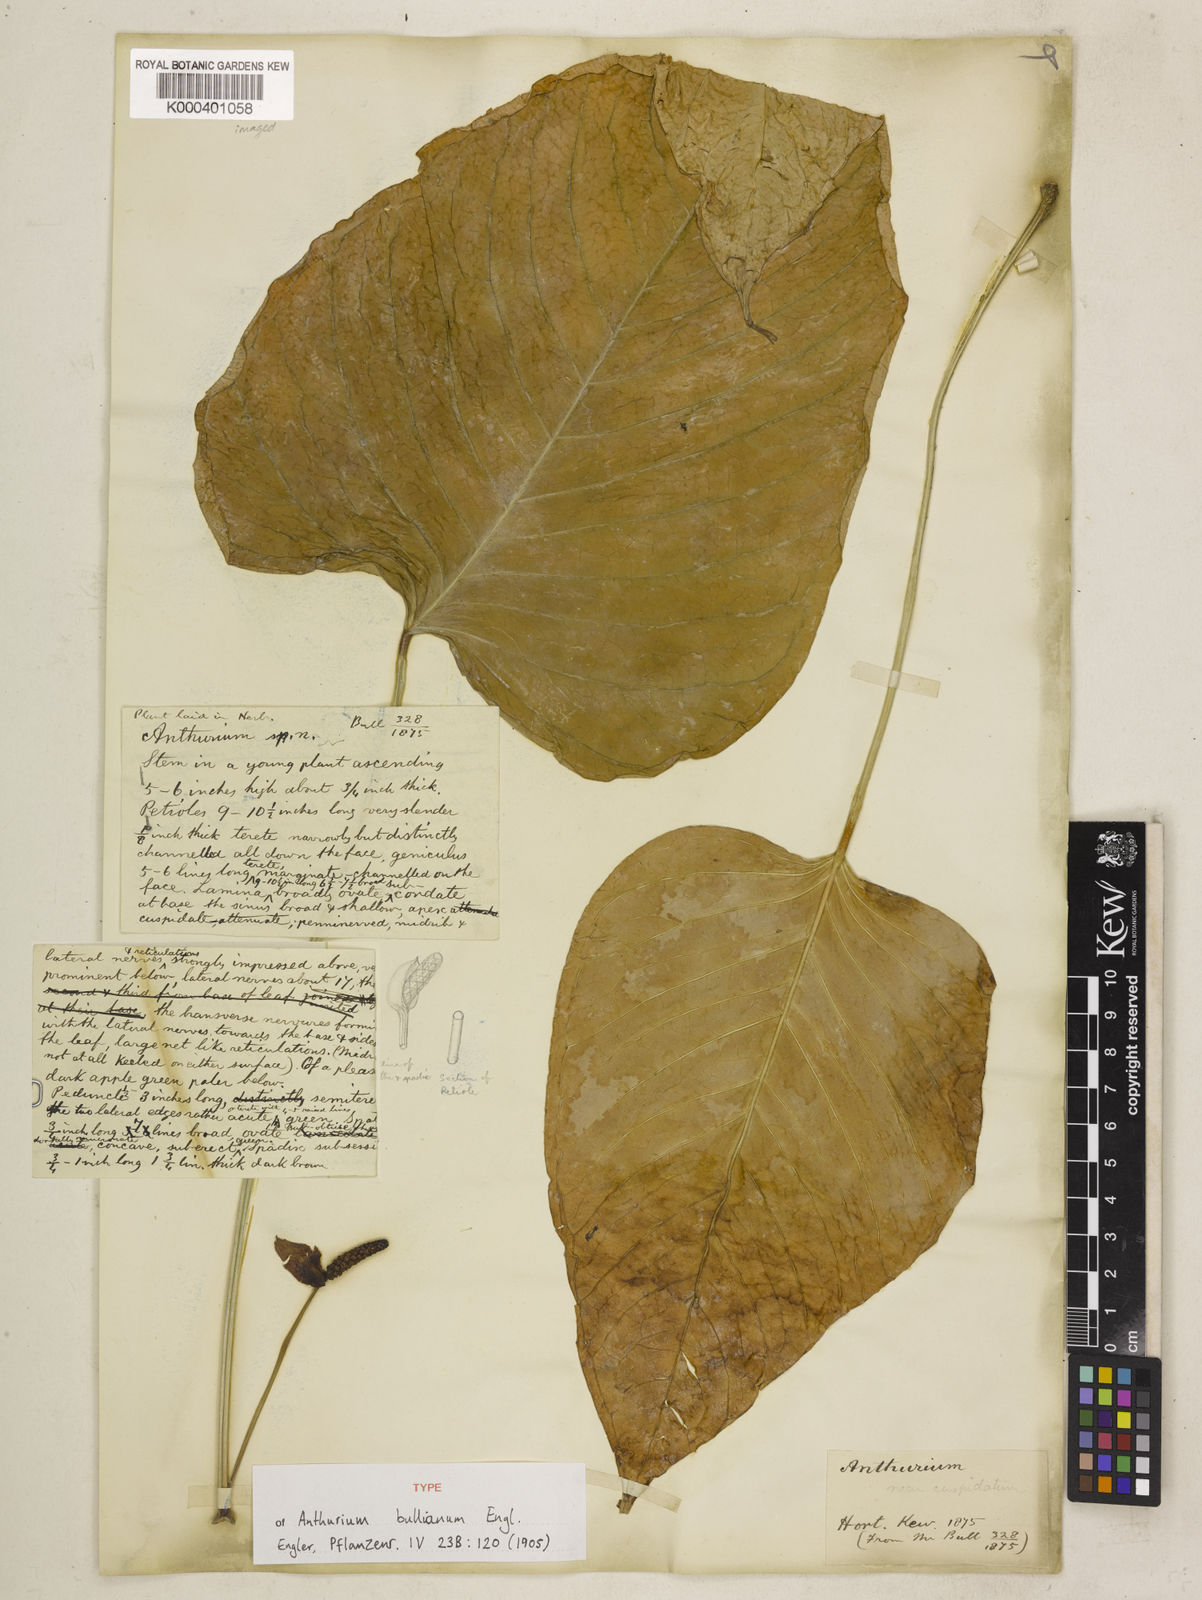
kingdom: Plantae
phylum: Tracheophyta
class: Liliopsida
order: Alismatales
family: Araceae
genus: Anthurium
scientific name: Anthurium bullianum
